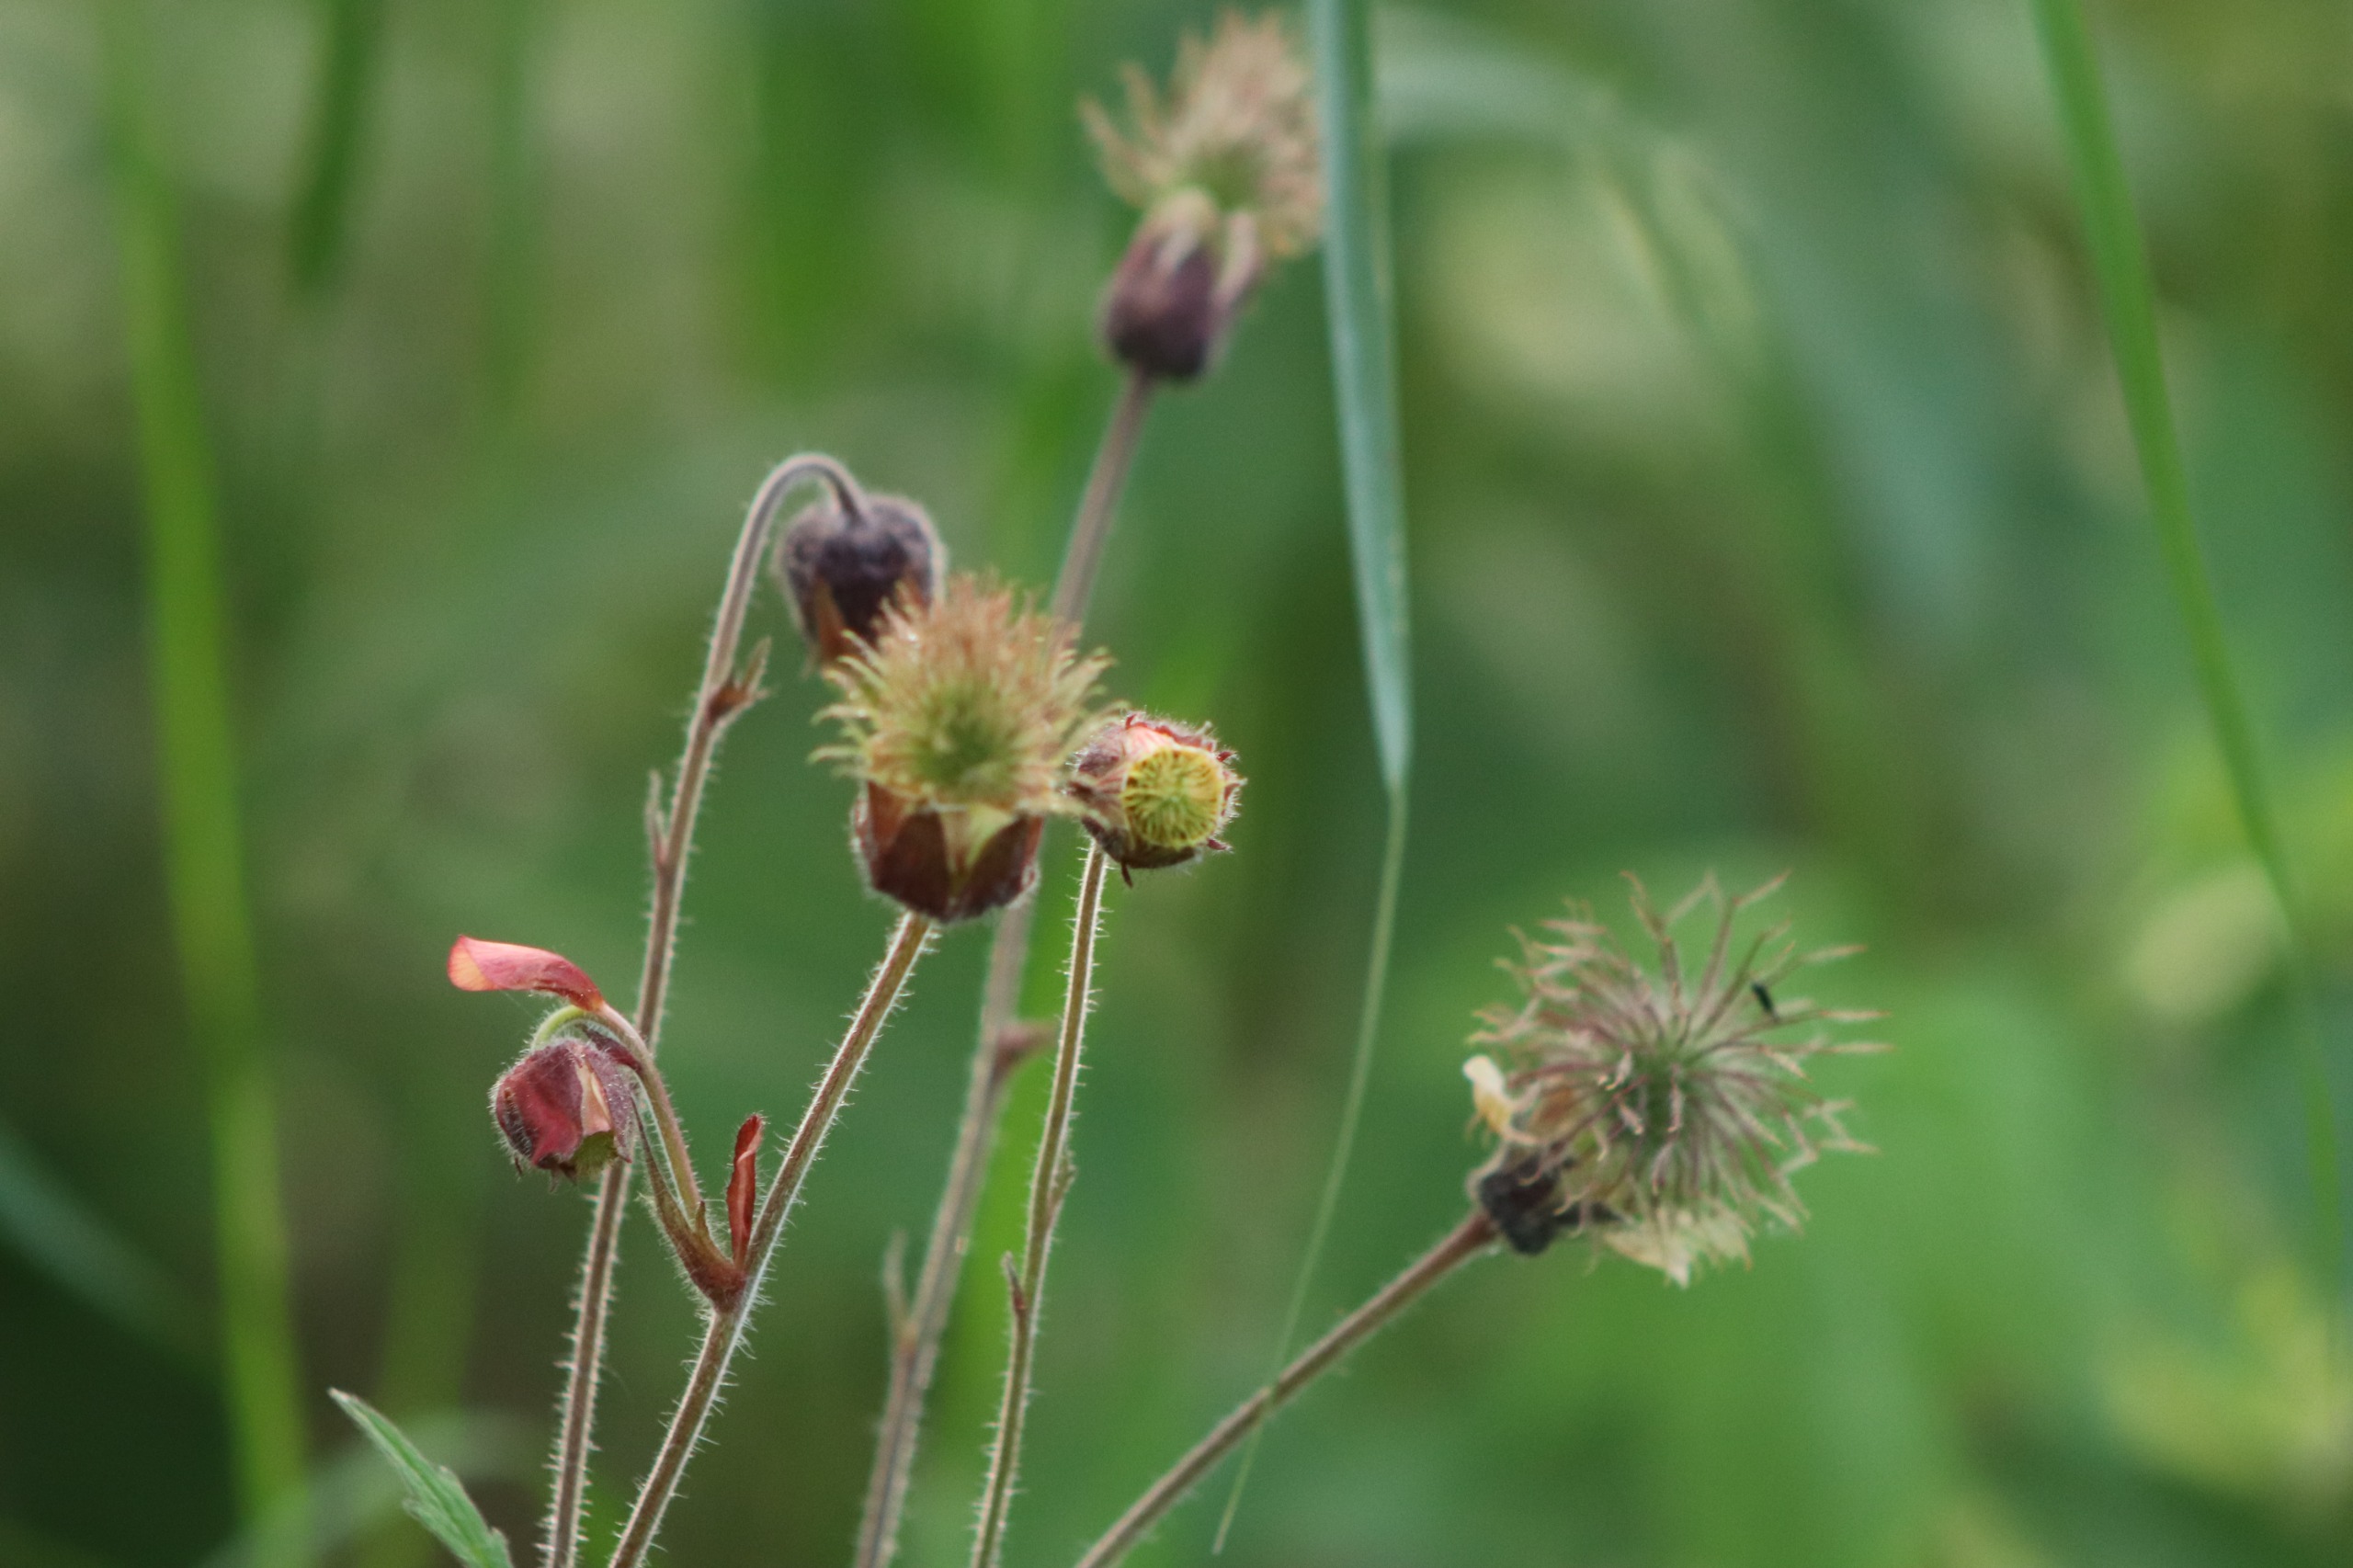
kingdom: Plantae
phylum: Tracheophyta
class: Magnoliopsida
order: Rosales
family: Rosaceae
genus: Geum
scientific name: Geum rivale
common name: Eng-nellikerod
